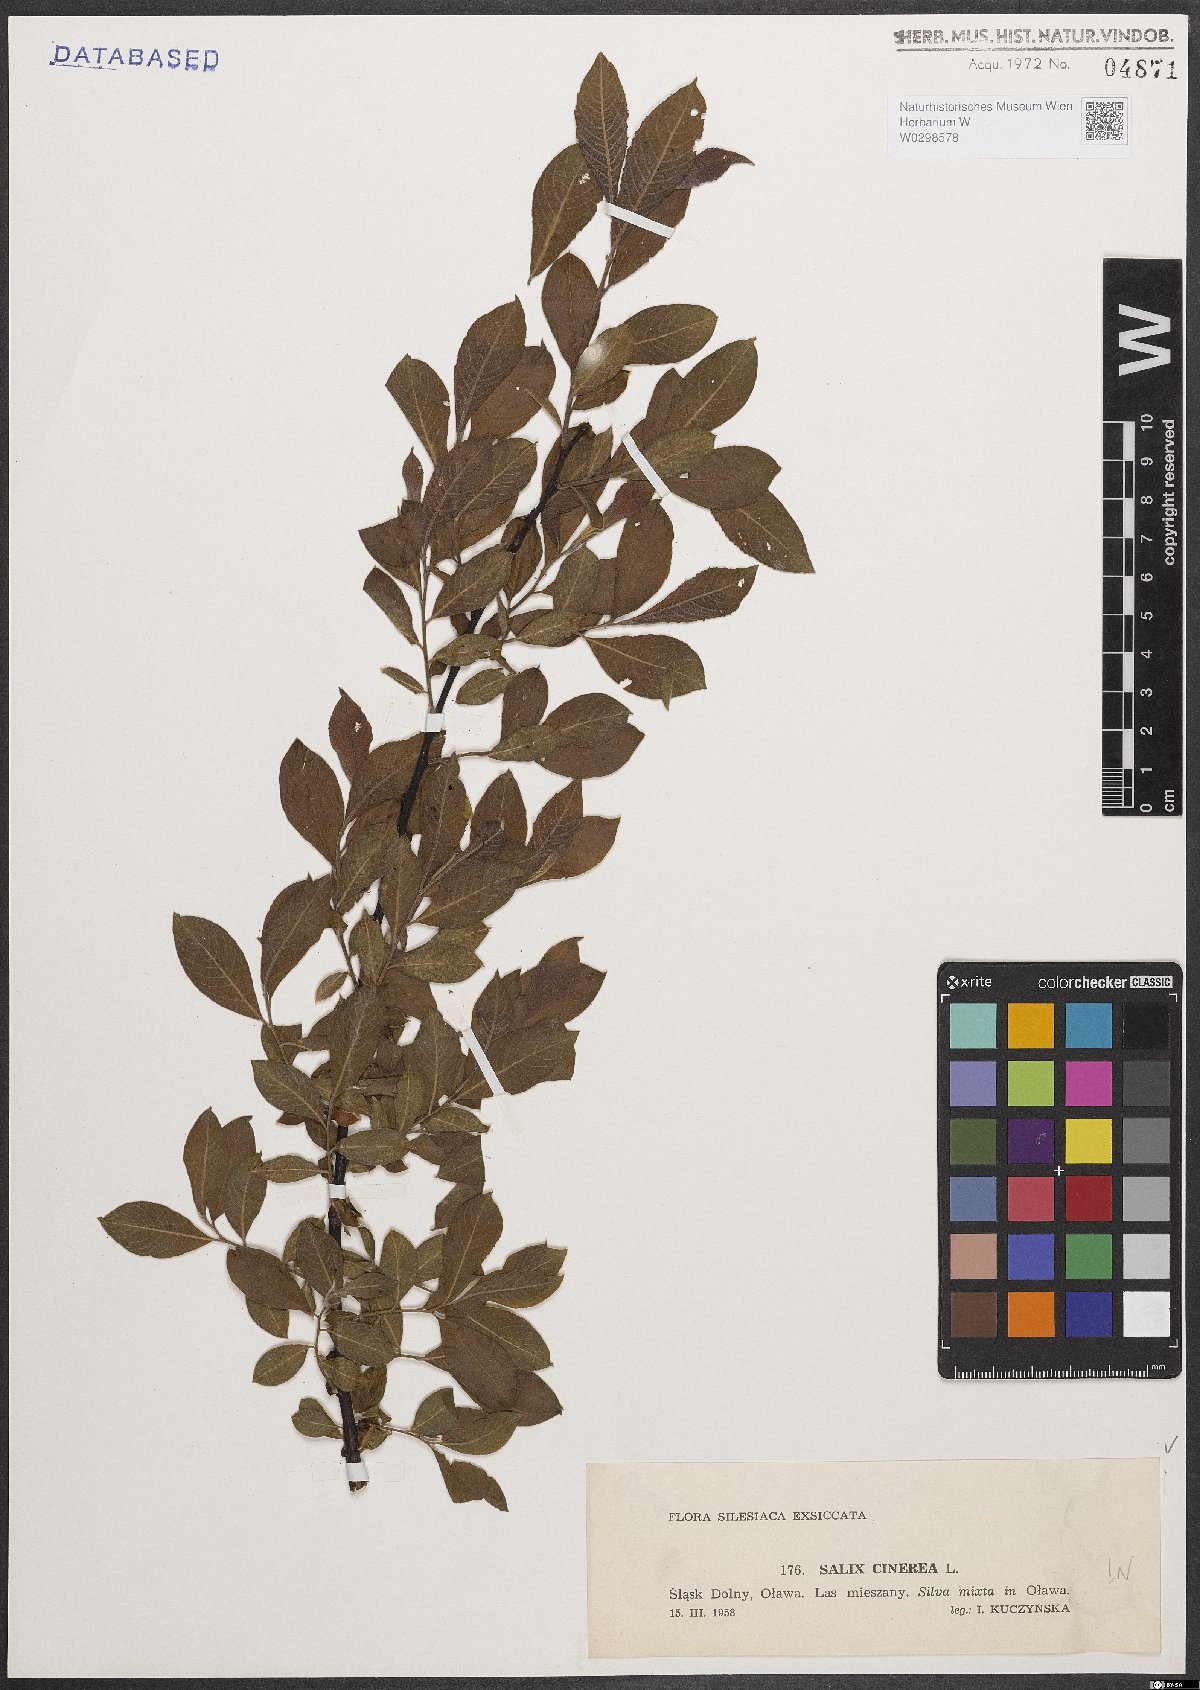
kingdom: Plantae
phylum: Tracheophyta
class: Magnoliopsida
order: Malpighiales
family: Salicaceae
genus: Salix
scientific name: Salix cinerea
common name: Common sallow
